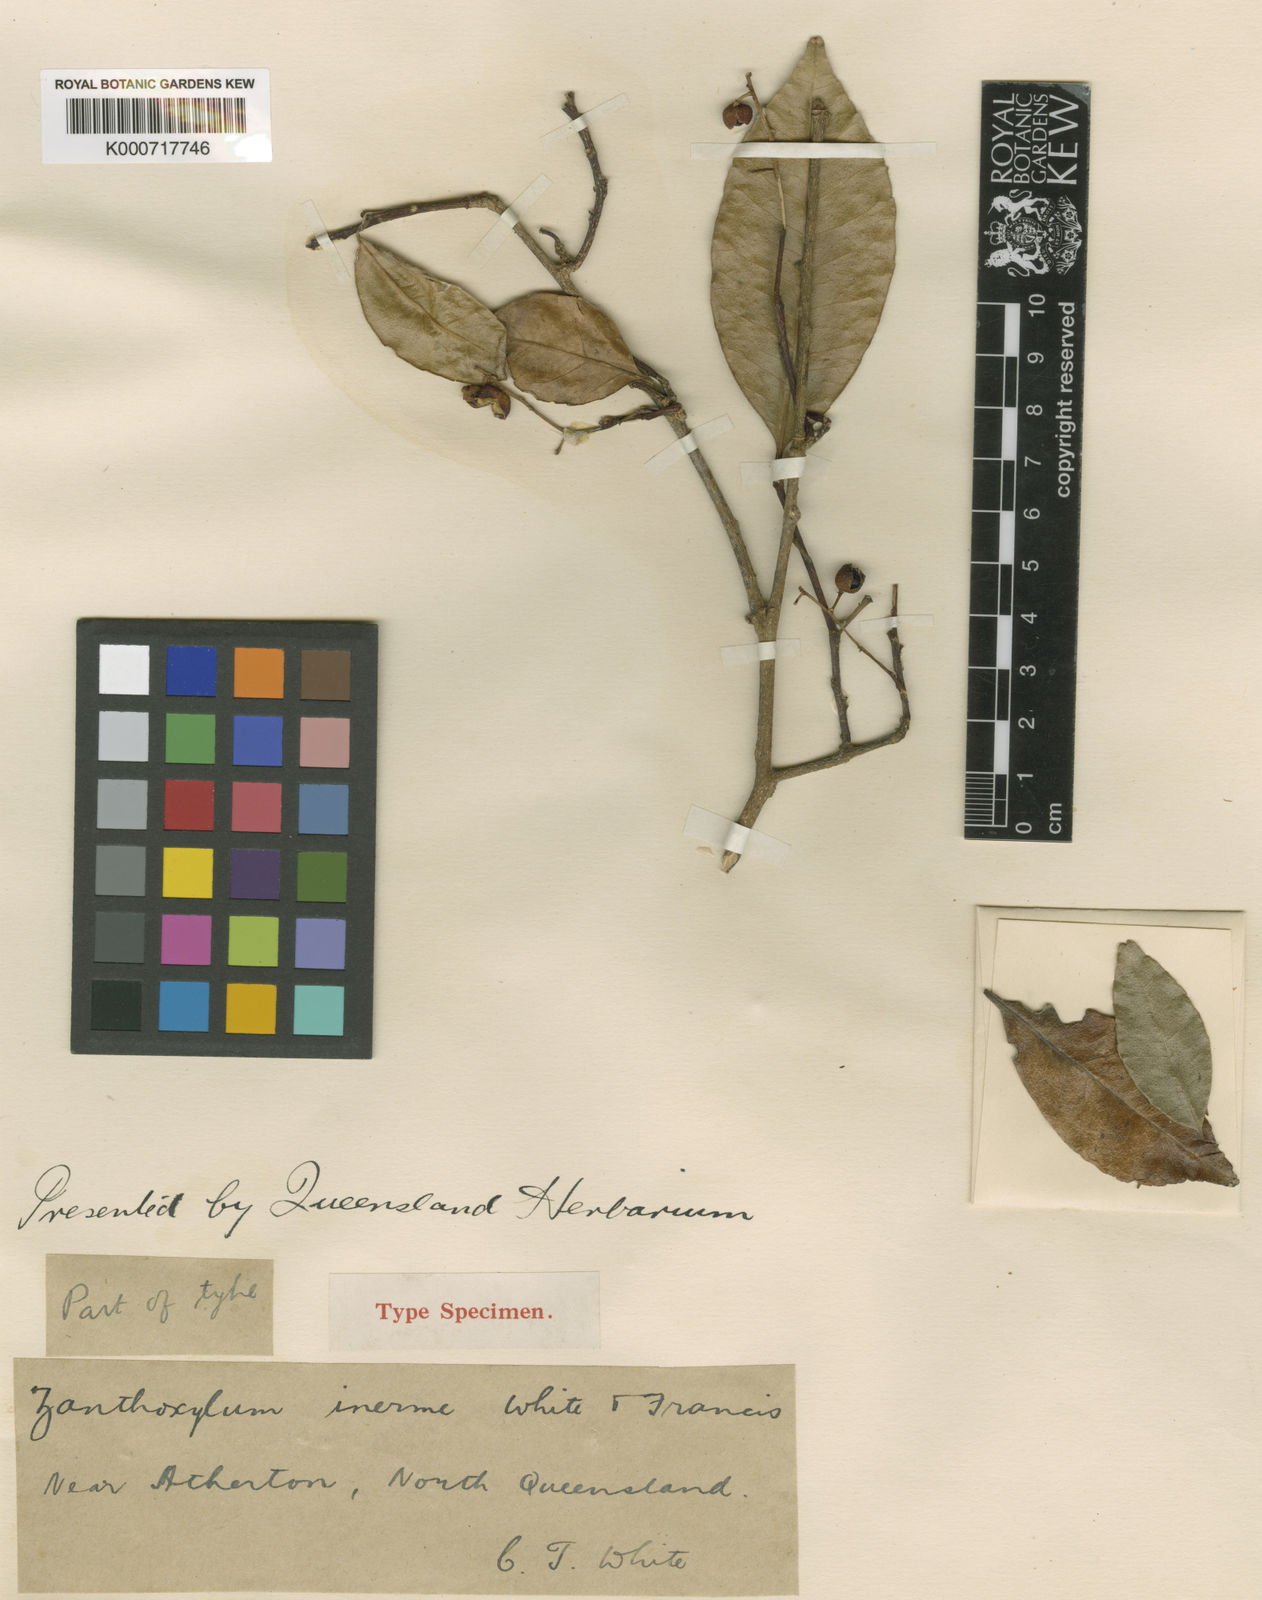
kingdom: Plantae
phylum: Tracheophyta
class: Magnoliopsida
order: Sapindales
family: Rutaceae
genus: Zanthoxylum
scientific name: Zanthoxylum ovalifolium
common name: Thorny yellowwood
